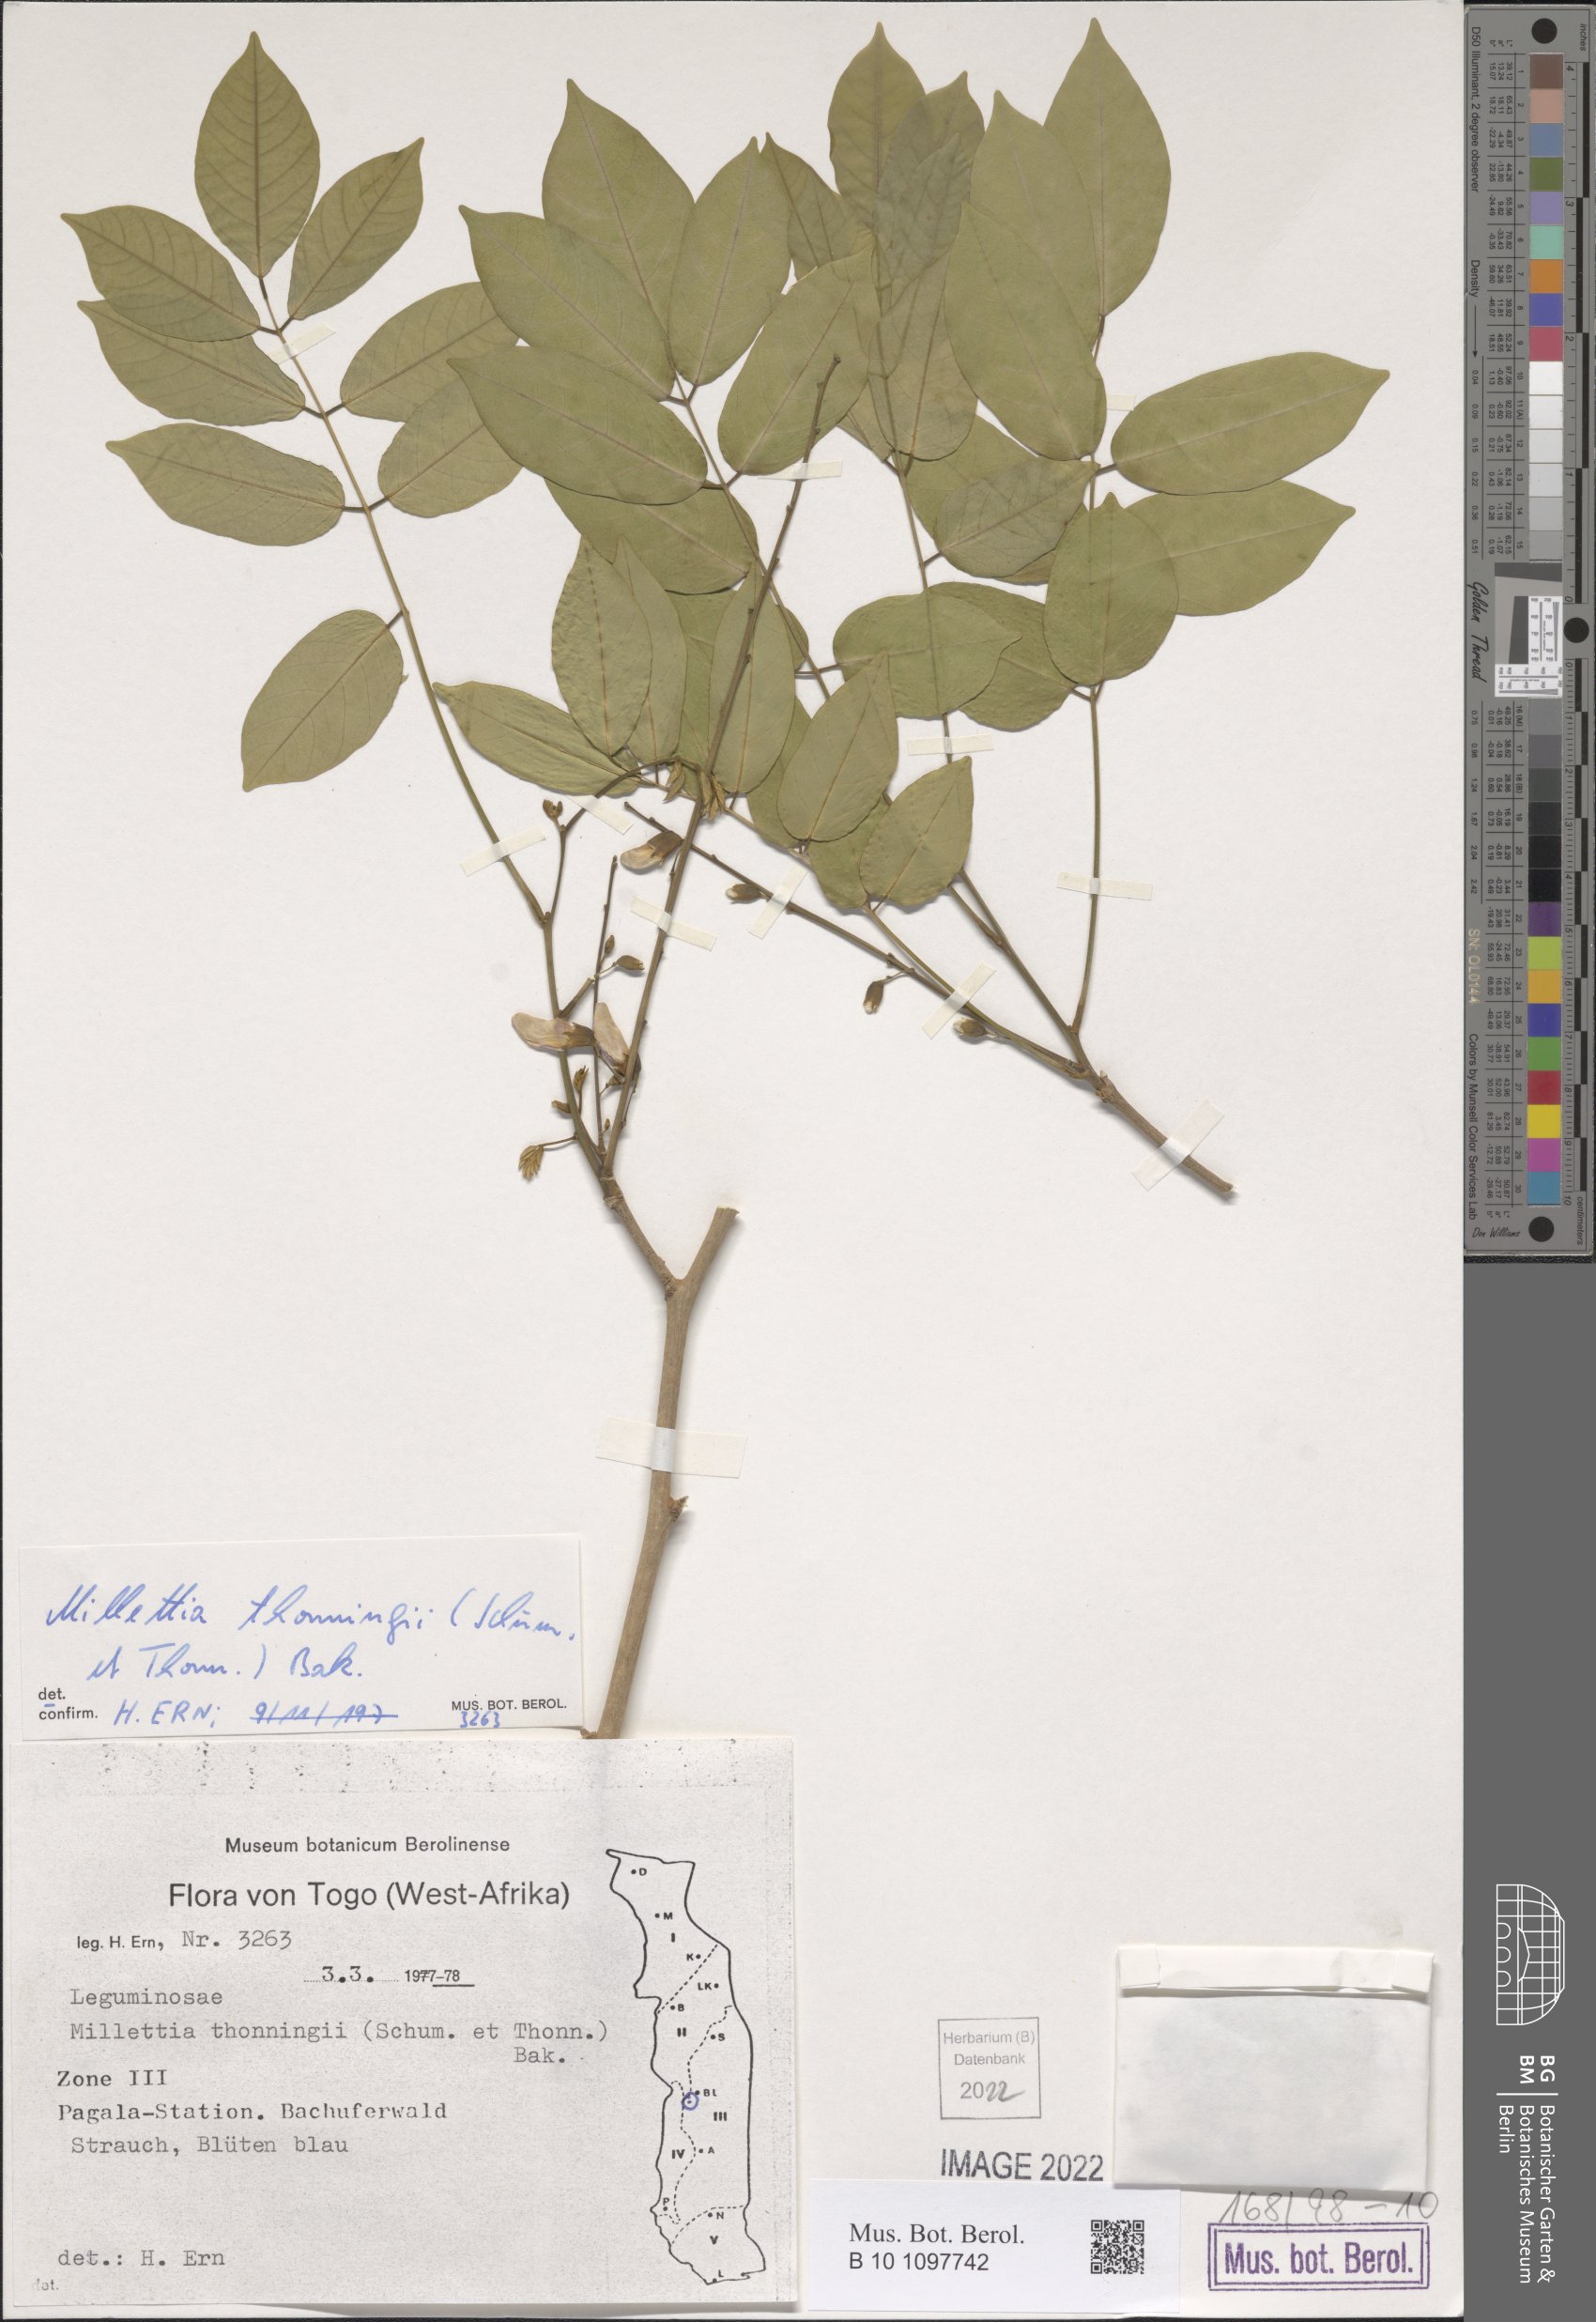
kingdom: Plantae
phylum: Tracheophyta
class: Magnoliopsida
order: Fabales
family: Fabaceae
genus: Millettia
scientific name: Millettia thonningii
